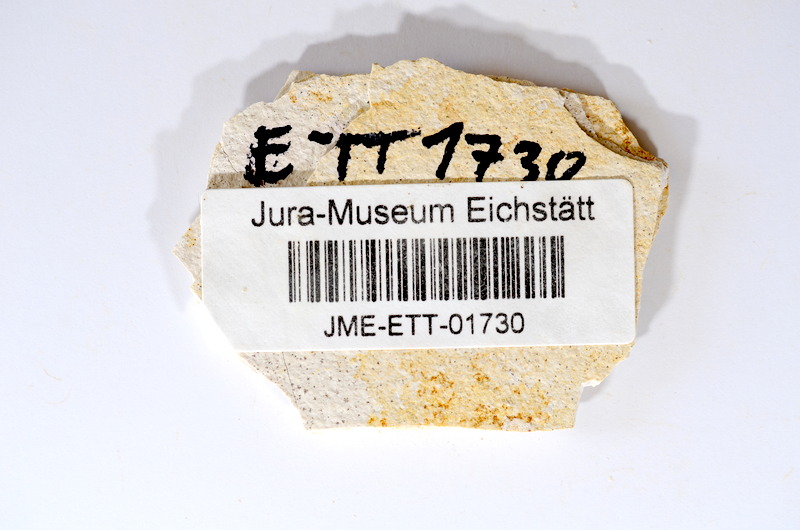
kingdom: Animalia
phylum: Chordata
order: Salmoniformes
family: Orthogonikleithridae
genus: Orthogonikleithrus
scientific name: Orthogonikleithrus hoelli
